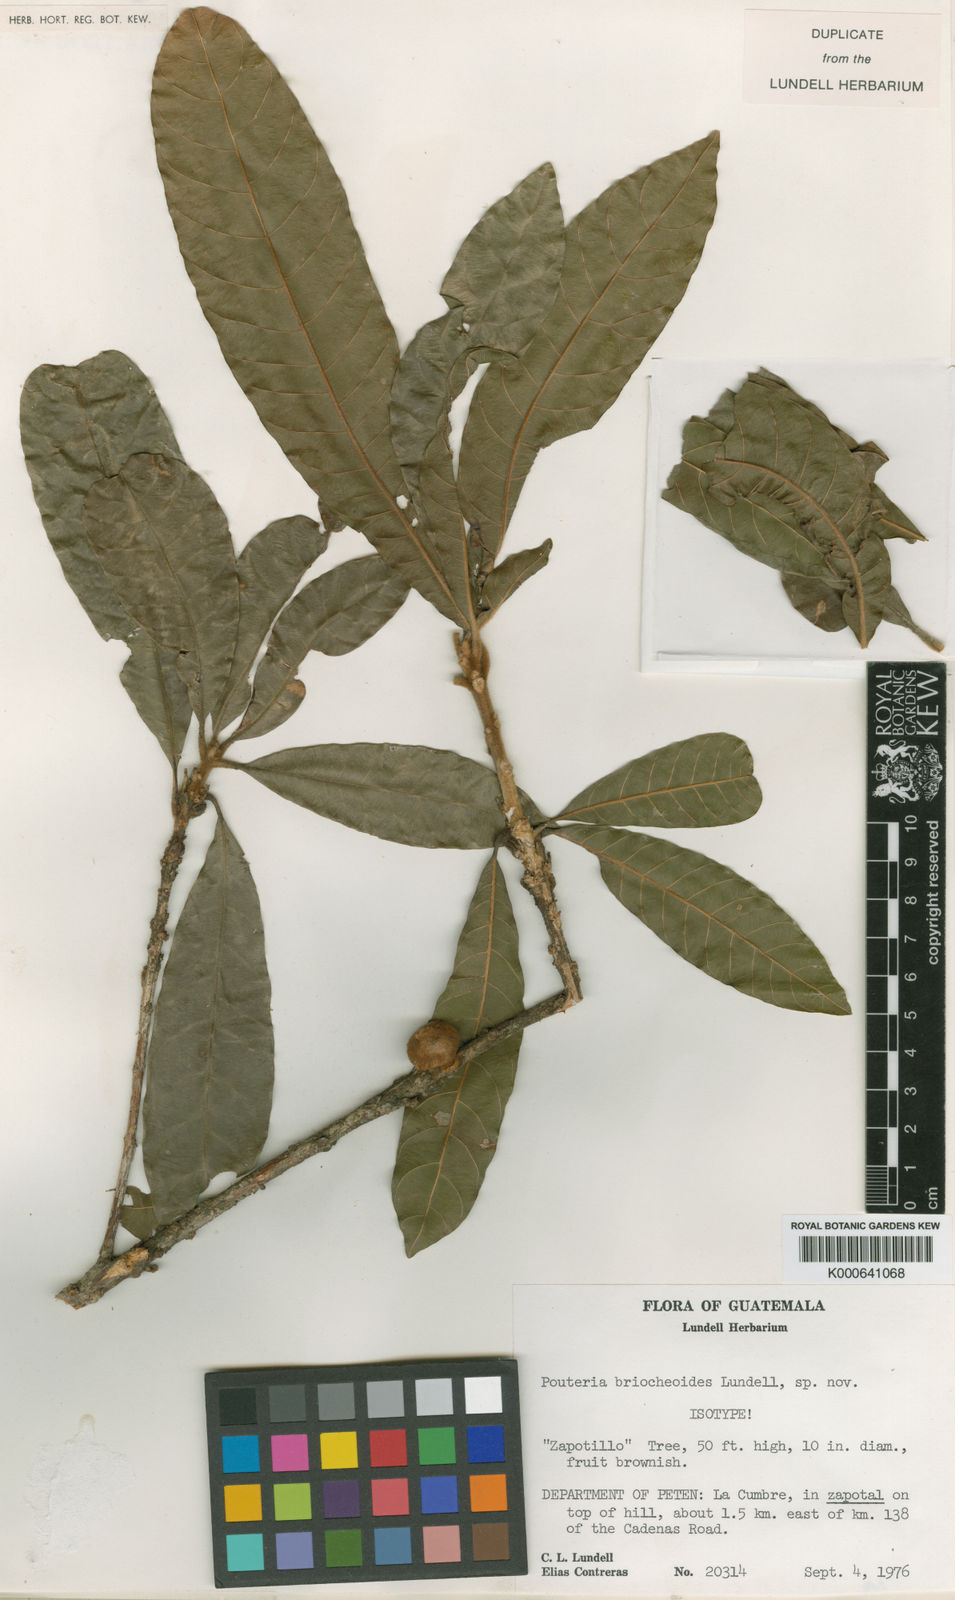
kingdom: Plantae
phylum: Tracheophyta
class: Magnoliopsida
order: Ericales
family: Sapotaceae
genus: Pouteria
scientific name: Pouteria briocheoides
